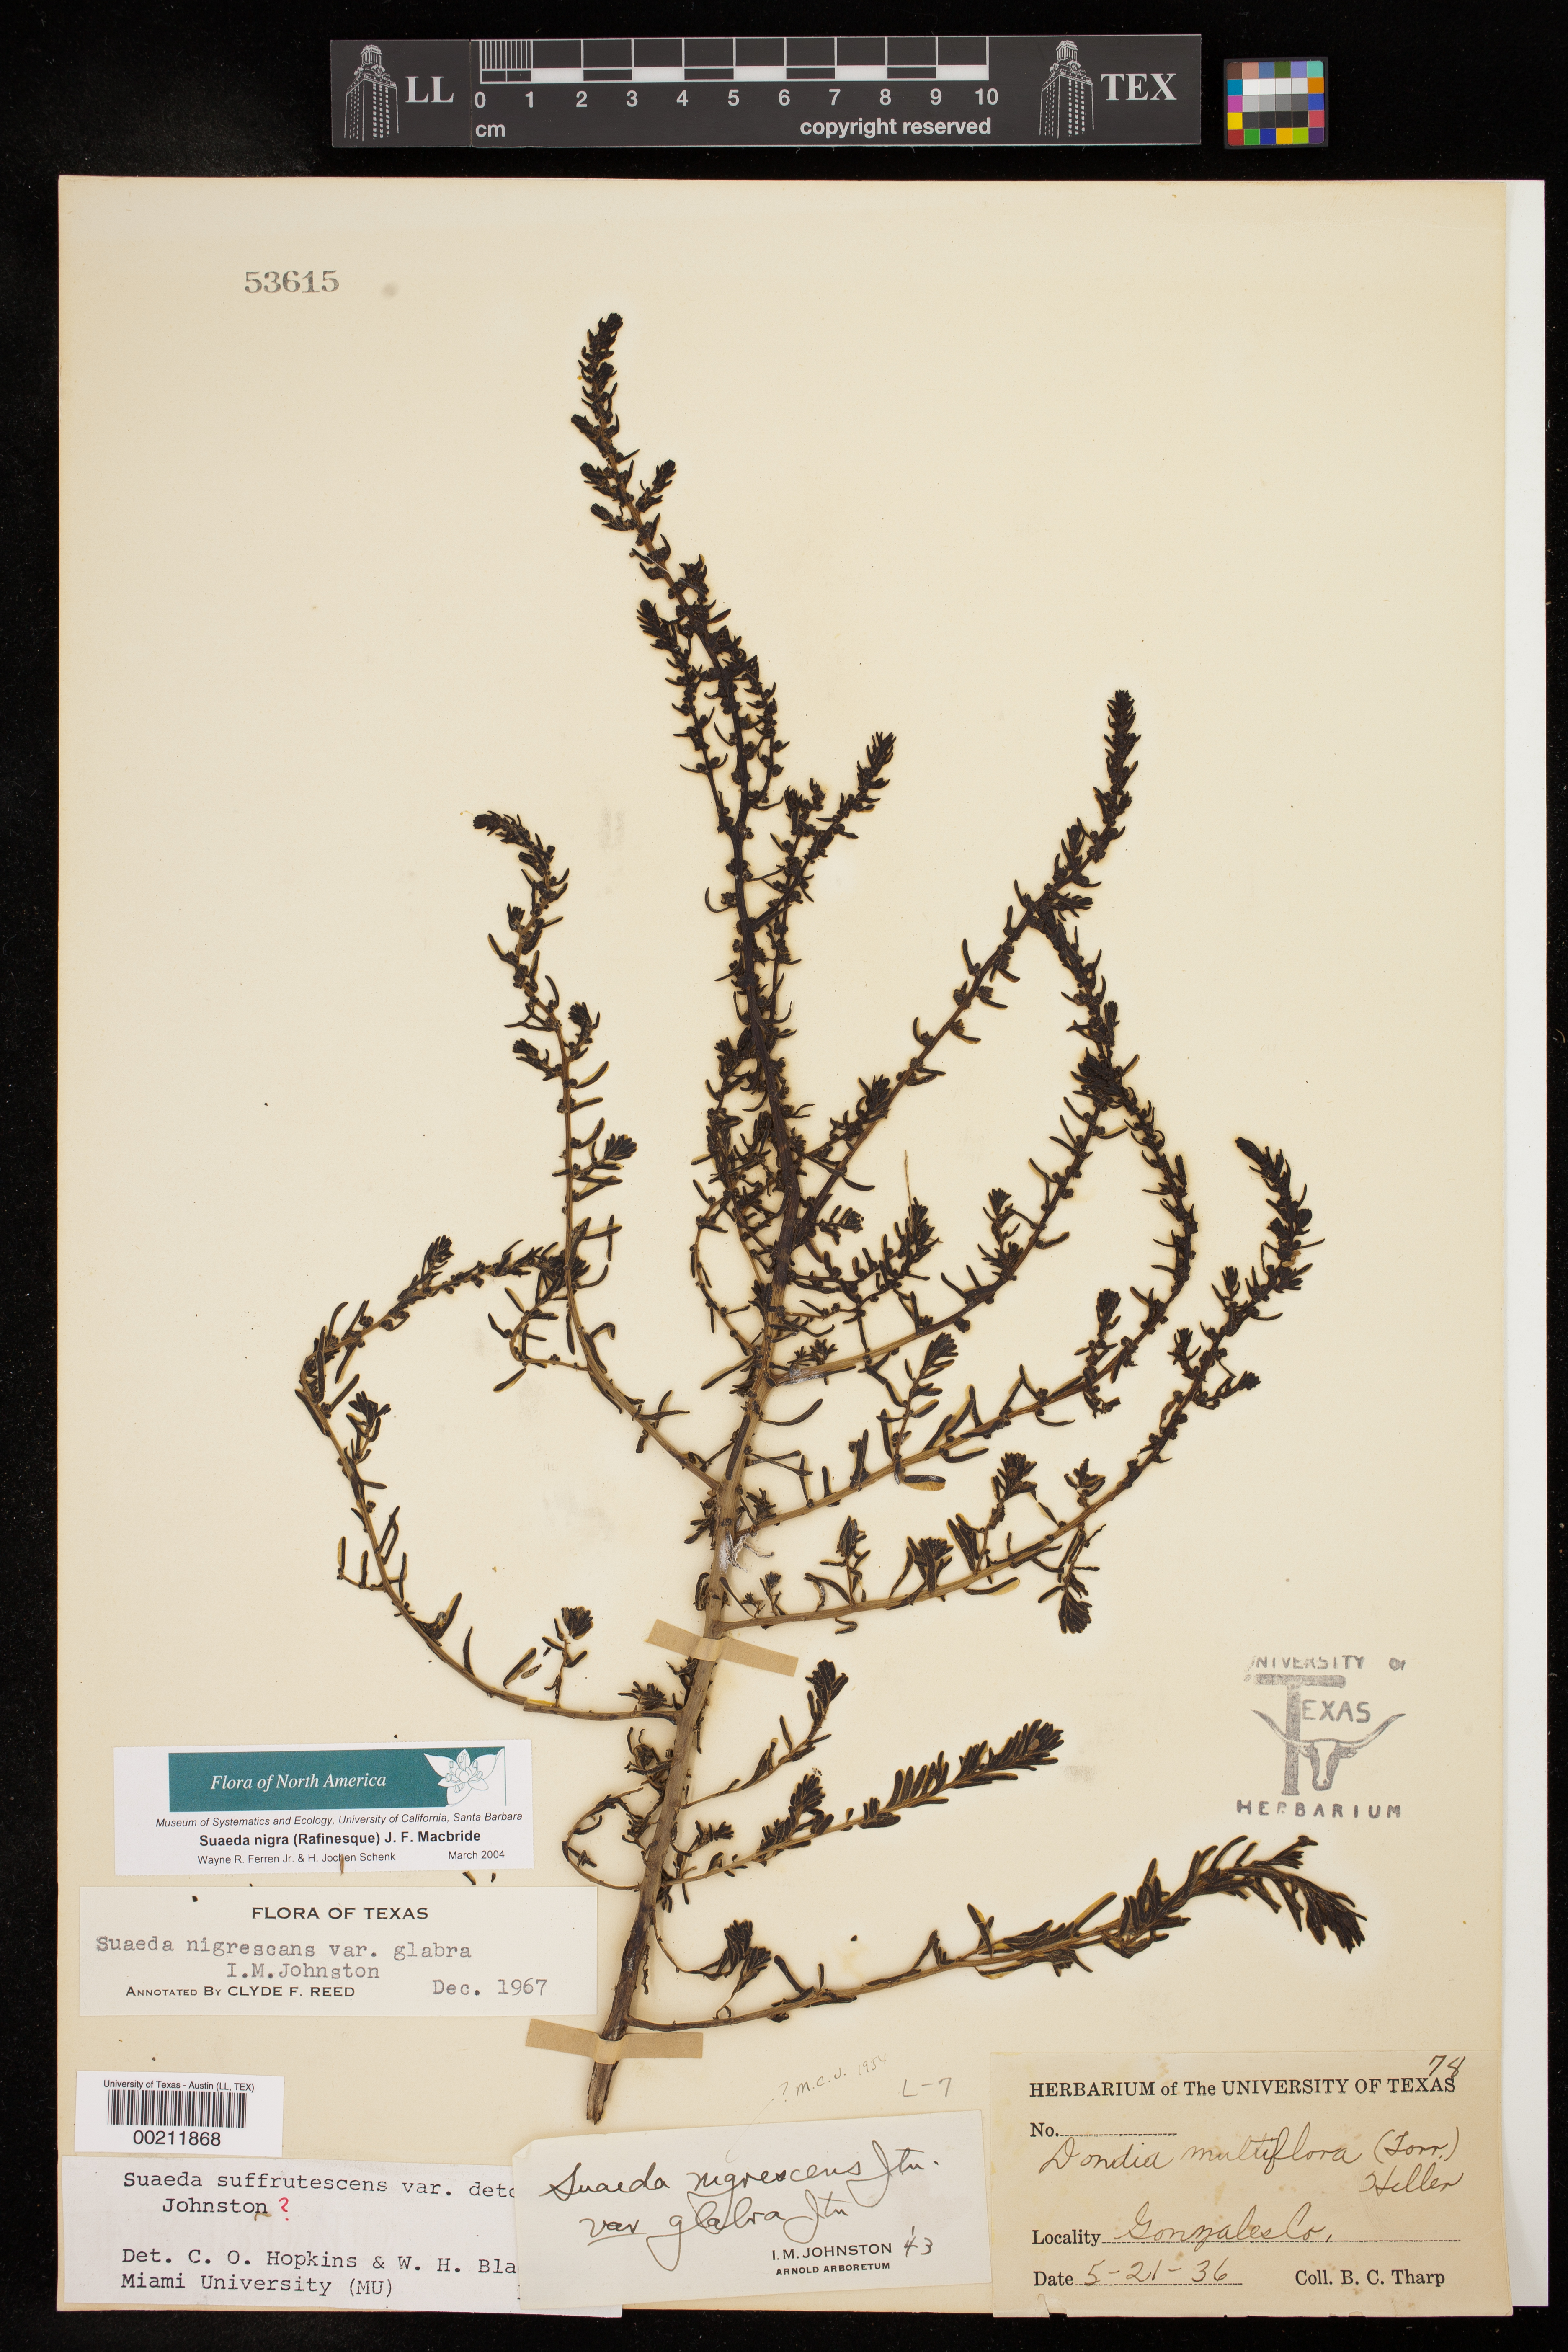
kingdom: Plantae
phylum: Tracheophyta
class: Magnoliopsida
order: Caryophyllales
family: Amaranthaceae
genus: Suaeda
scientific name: Suaeda nigra
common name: Bush seepweed
